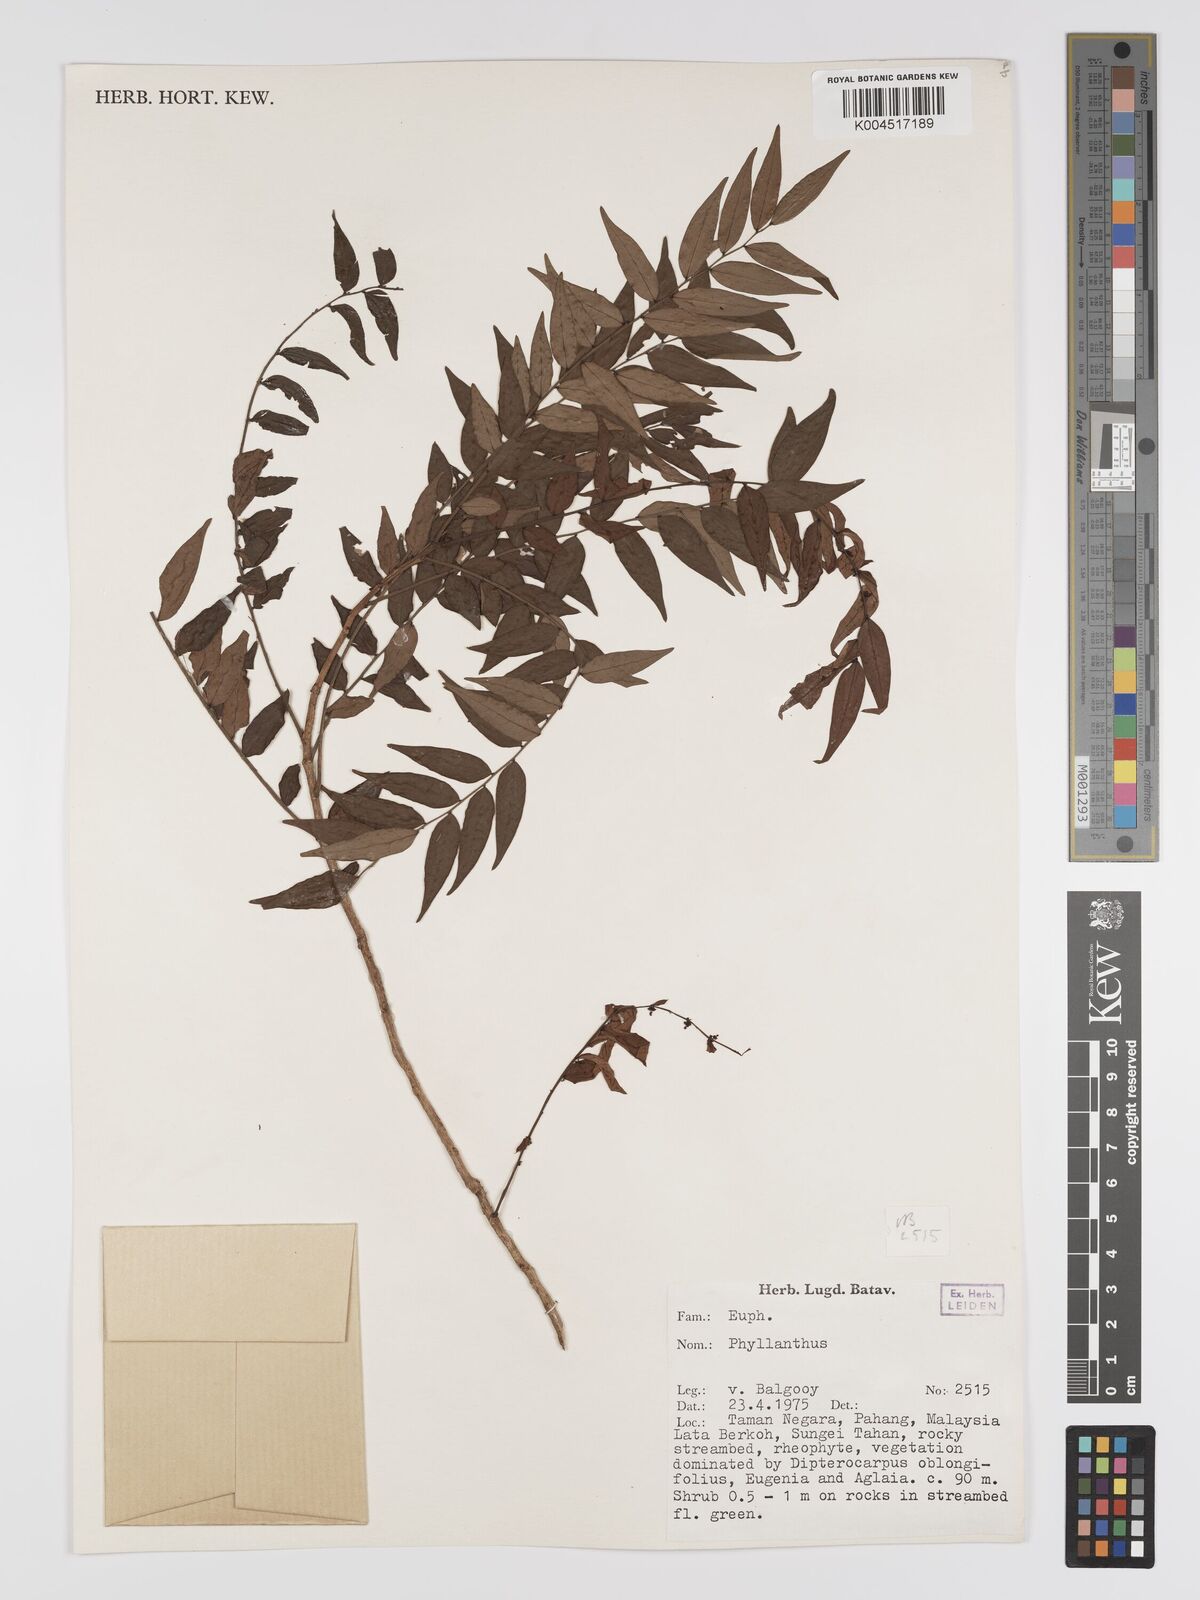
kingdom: Plantae
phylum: Tracheophyta
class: Magnoliopsida
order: Malpighiales
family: Phyllanthaceae
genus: Phyllanthus
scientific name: Phyllanthus
